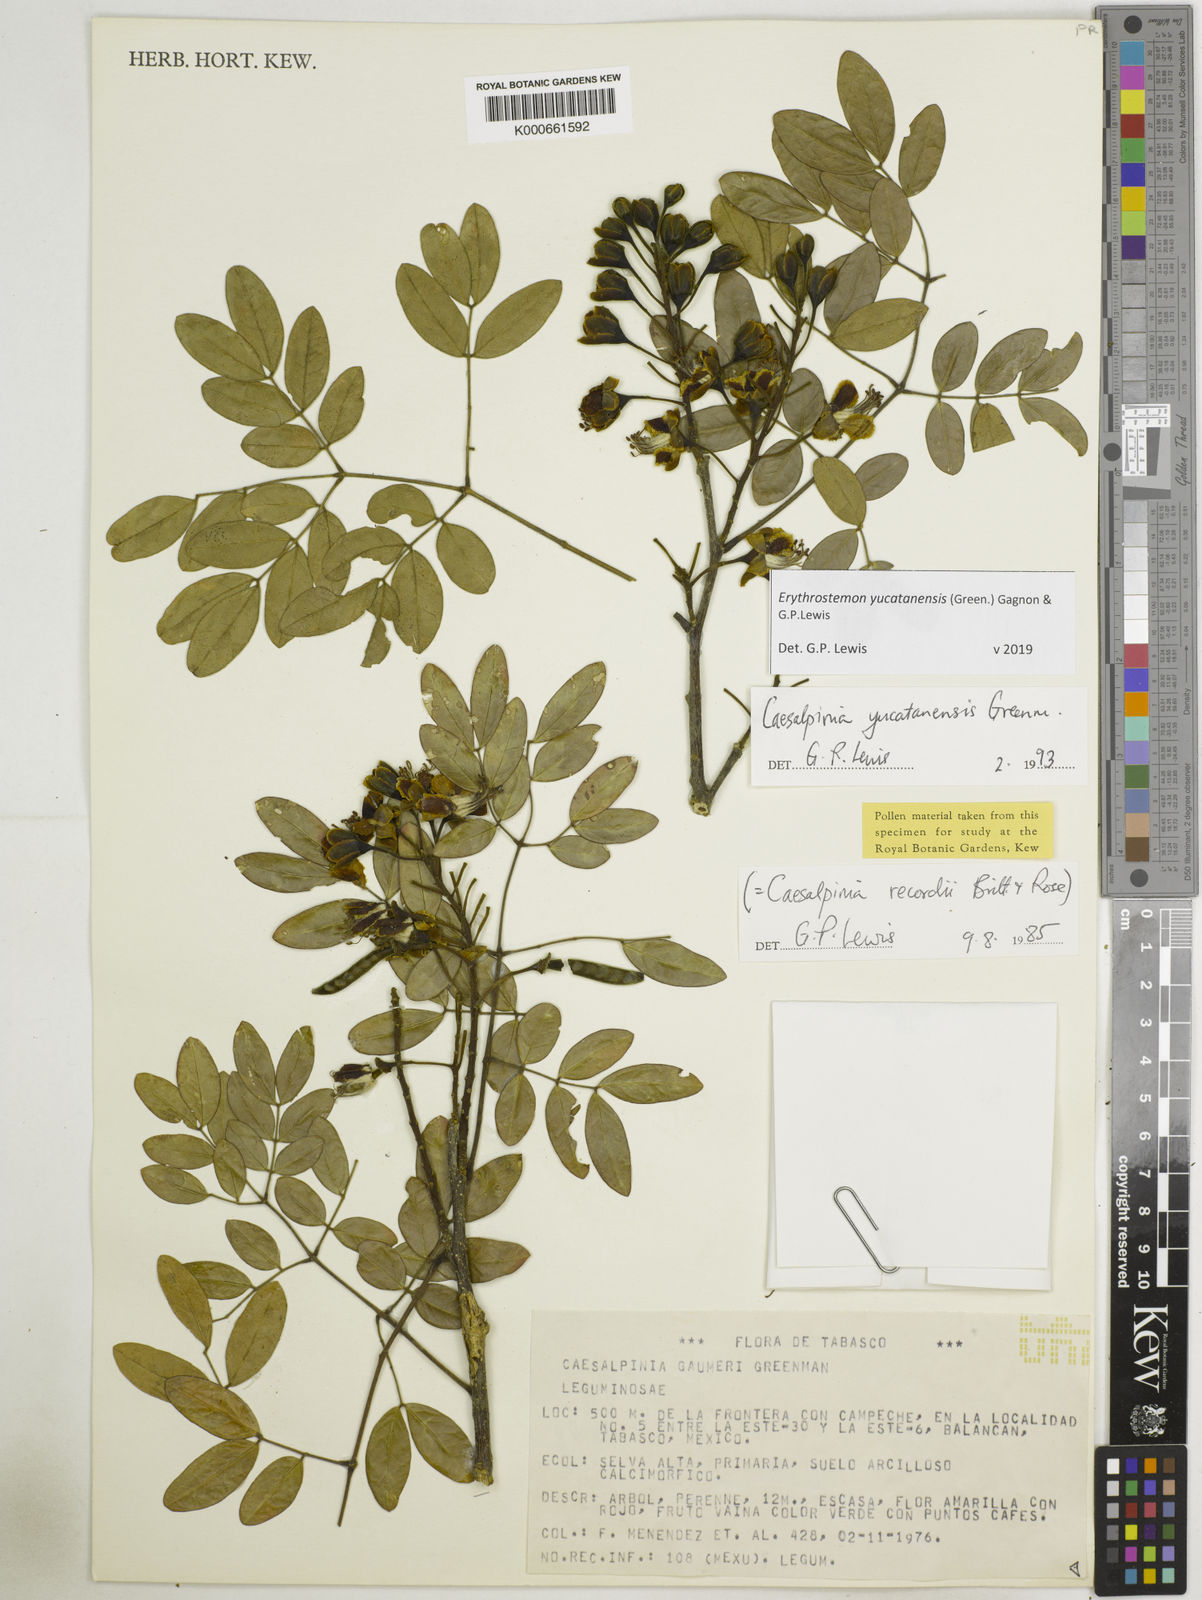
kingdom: Plantae
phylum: Tracheophyta
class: Magnoliopsida
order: Fabales
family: Fabaceae
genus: Caesalpinia
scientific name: Caesalpinia
